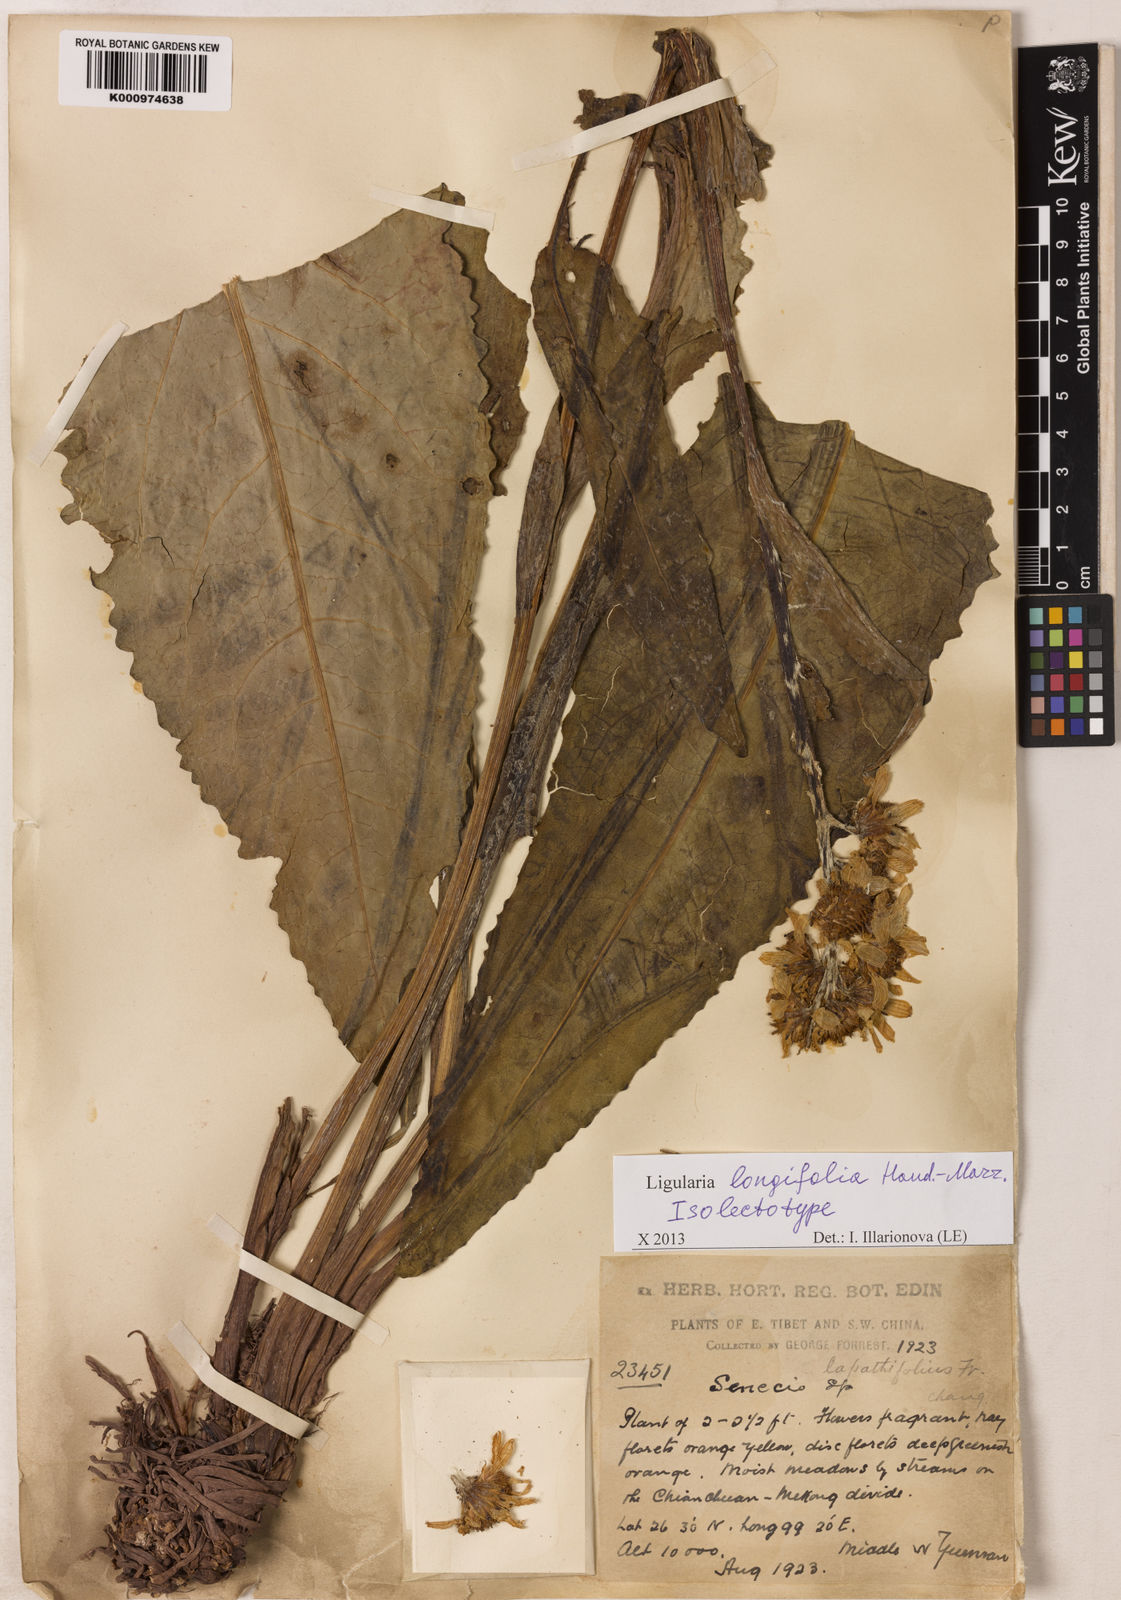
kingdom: Plantae
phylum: Tracheophyta
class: Magnoliopsida
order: Asterales
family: Asteraceae
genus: Ligularia
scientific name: Ligularia longifolia
